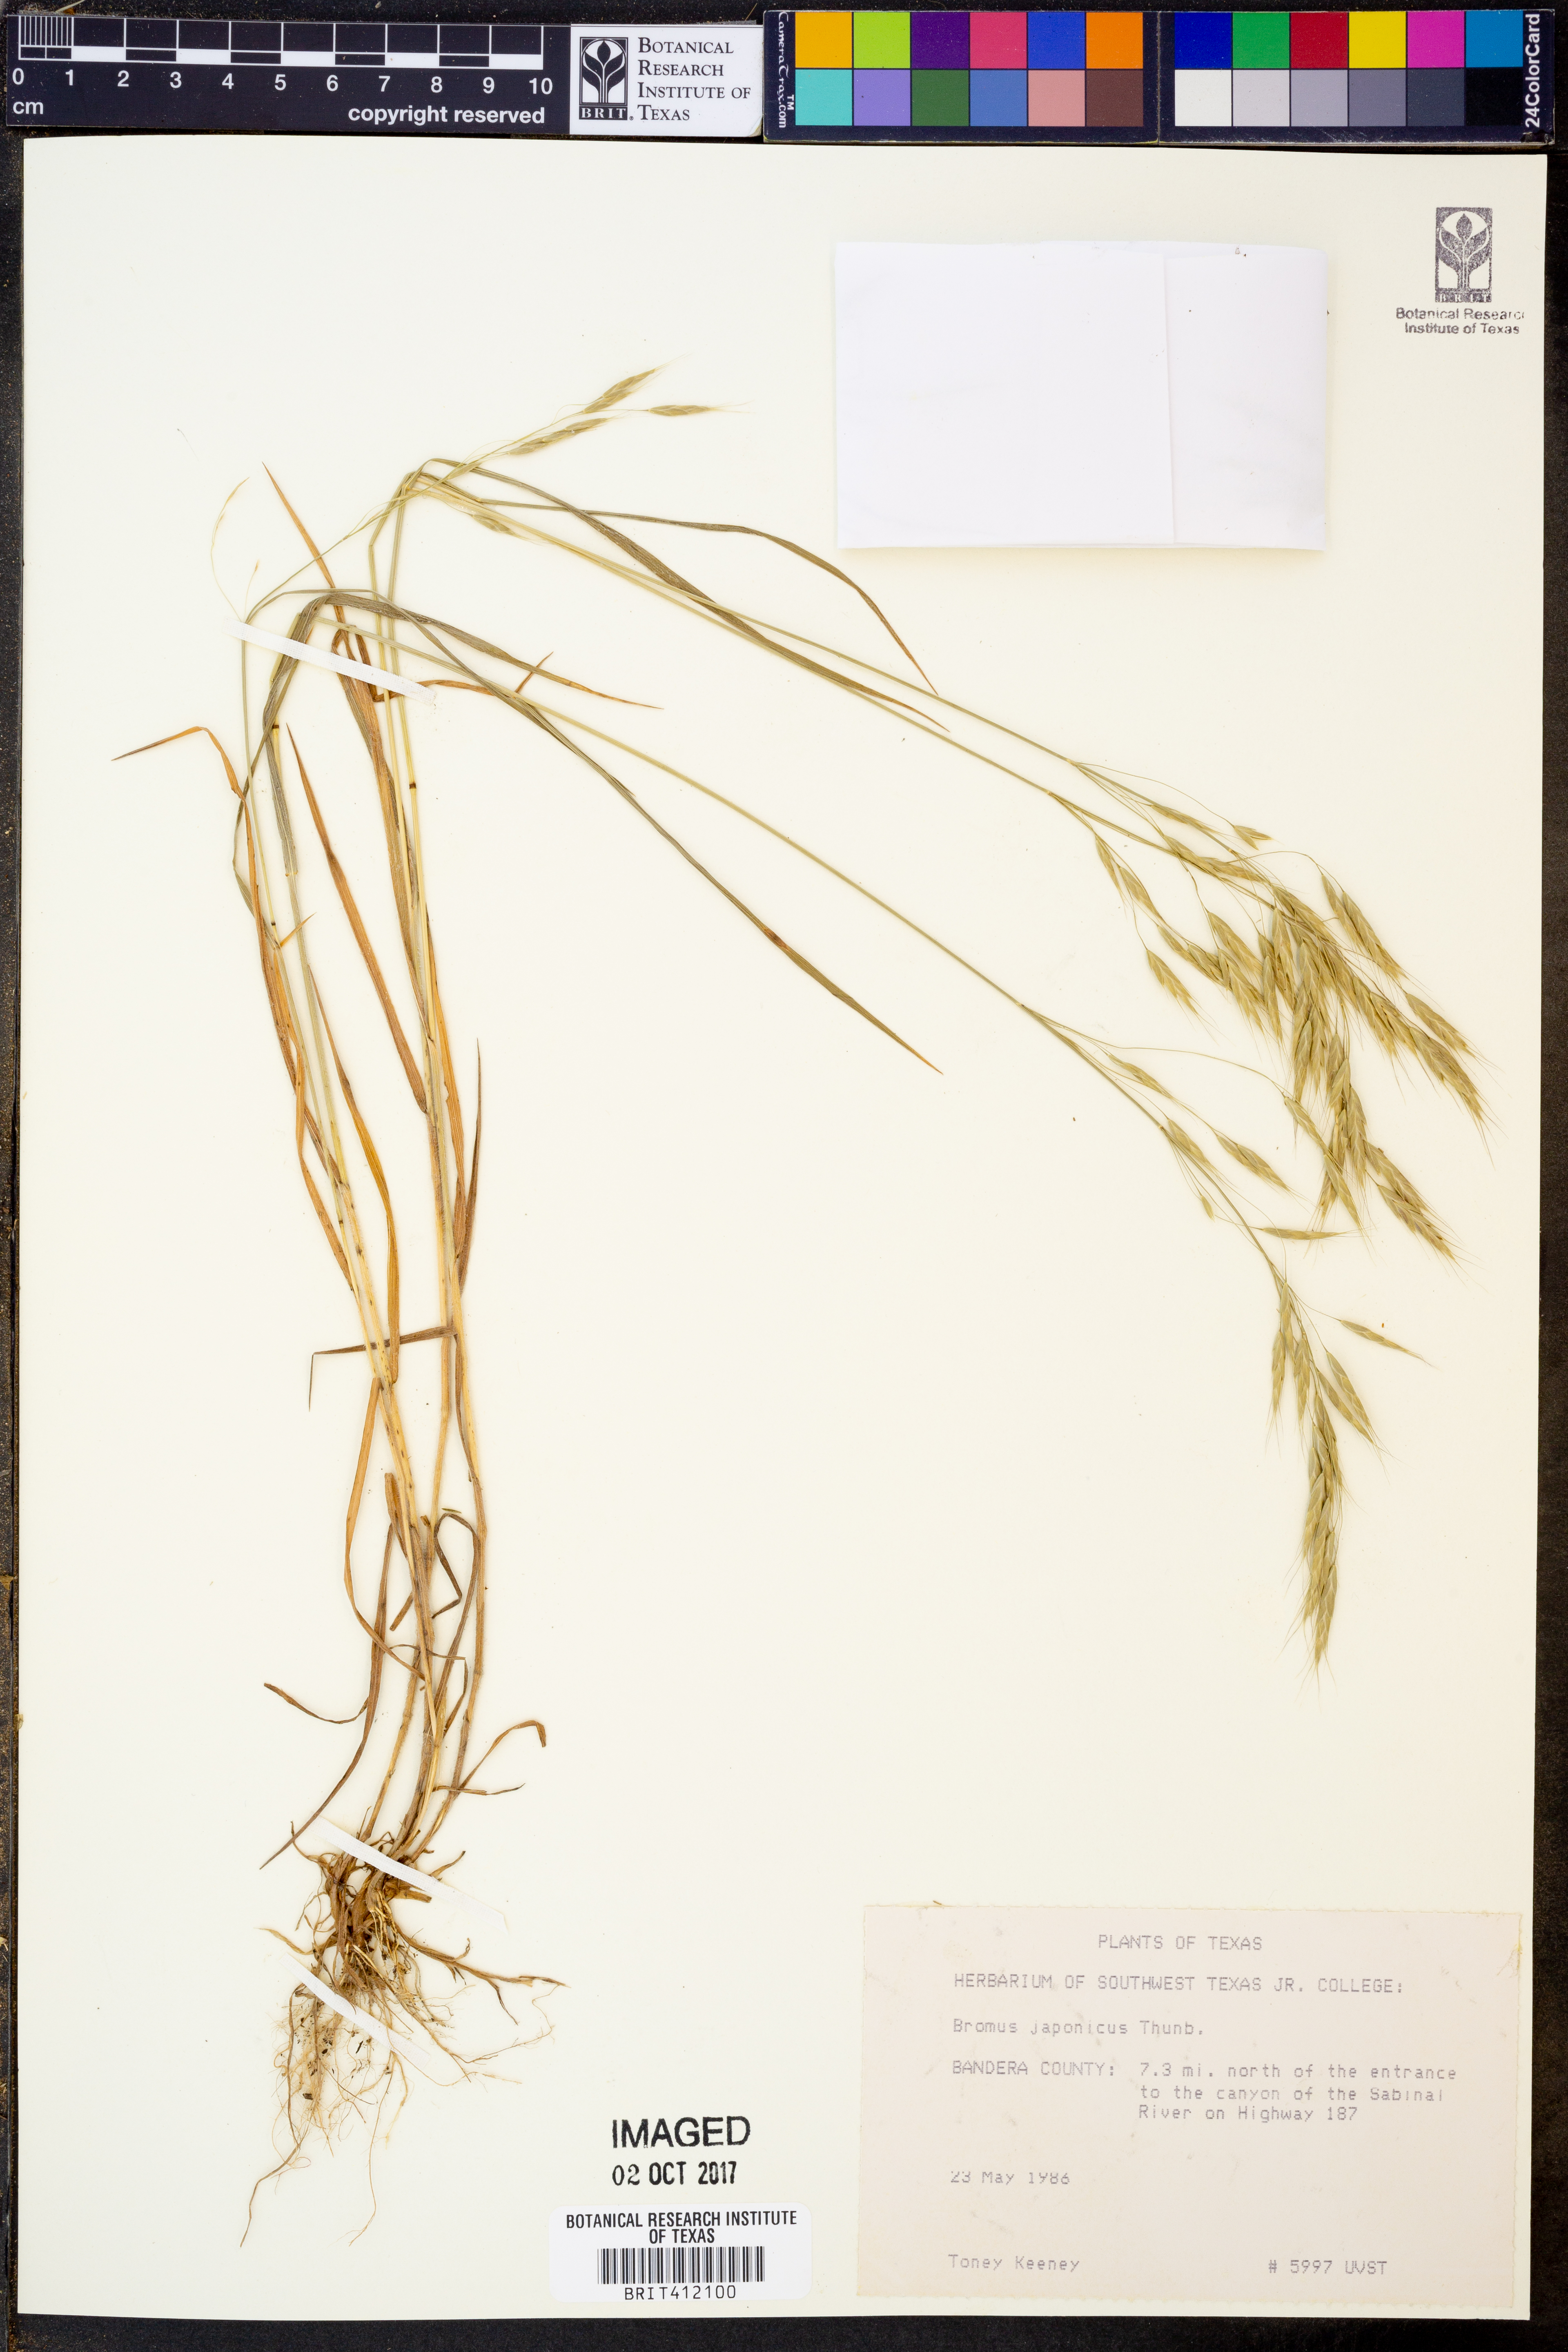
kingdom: Plantae
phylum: Tracheophyta
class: Liliopsida
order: Poales
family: Poaceae
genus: Bromus
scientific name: Bromus japonicus
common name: Japanese brome
